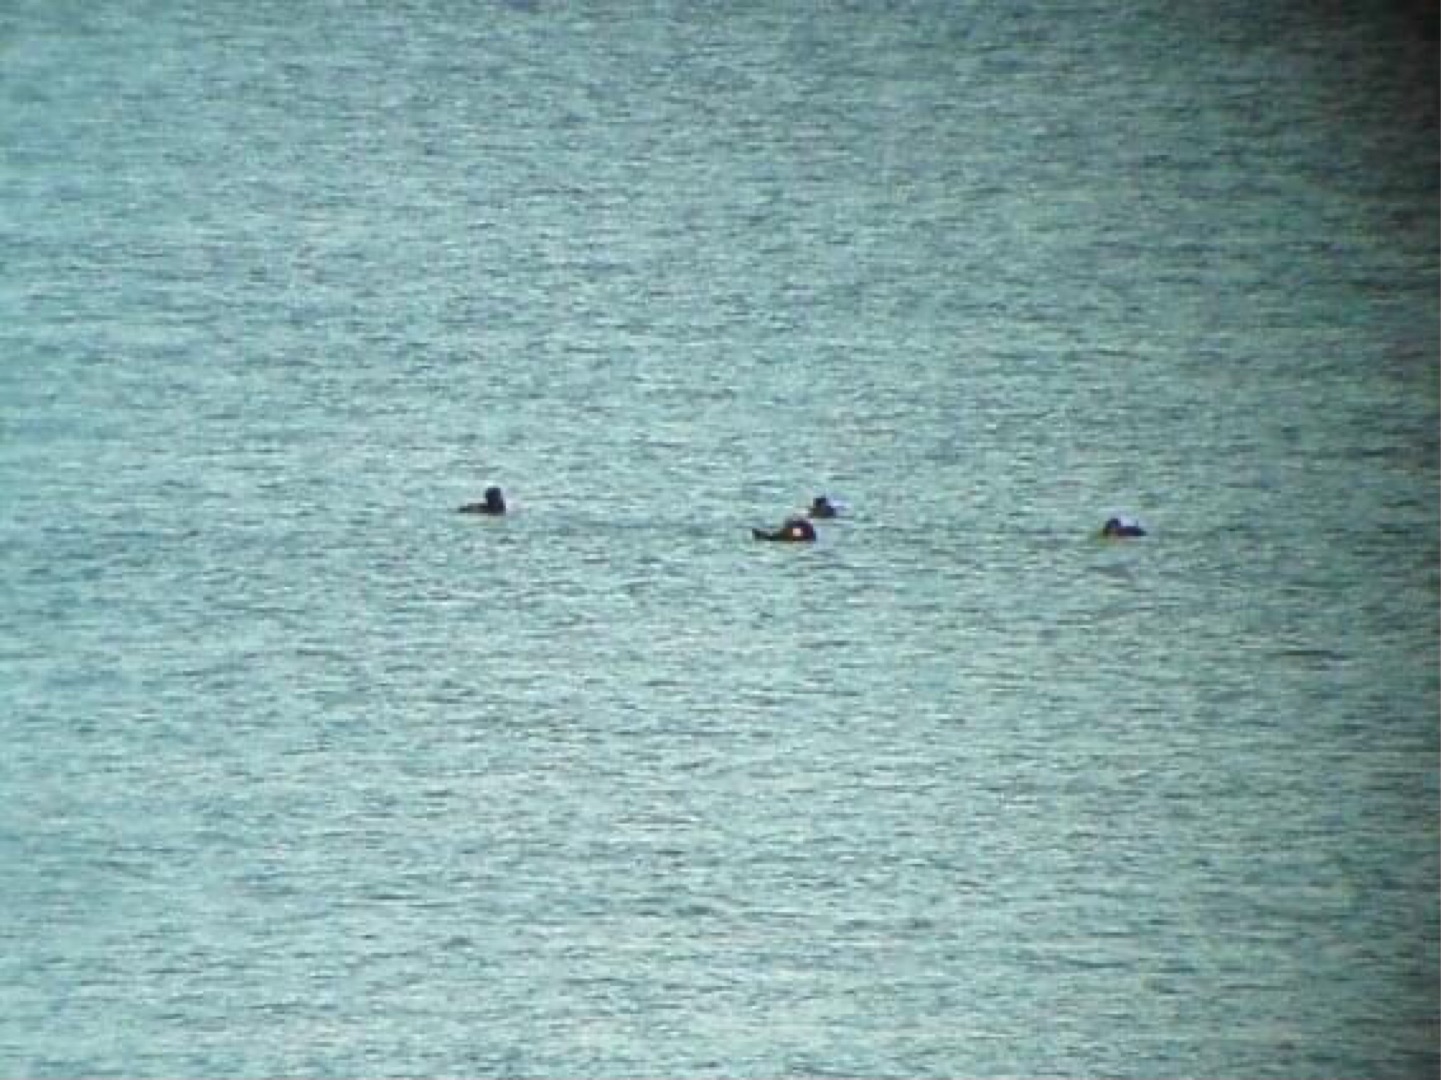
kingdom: Animalia
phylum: Chordata
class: Aves
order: Anseriformes
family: Anatidae
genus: Melanitta
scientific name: Melanitta americana
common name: Amerikansk sortand
